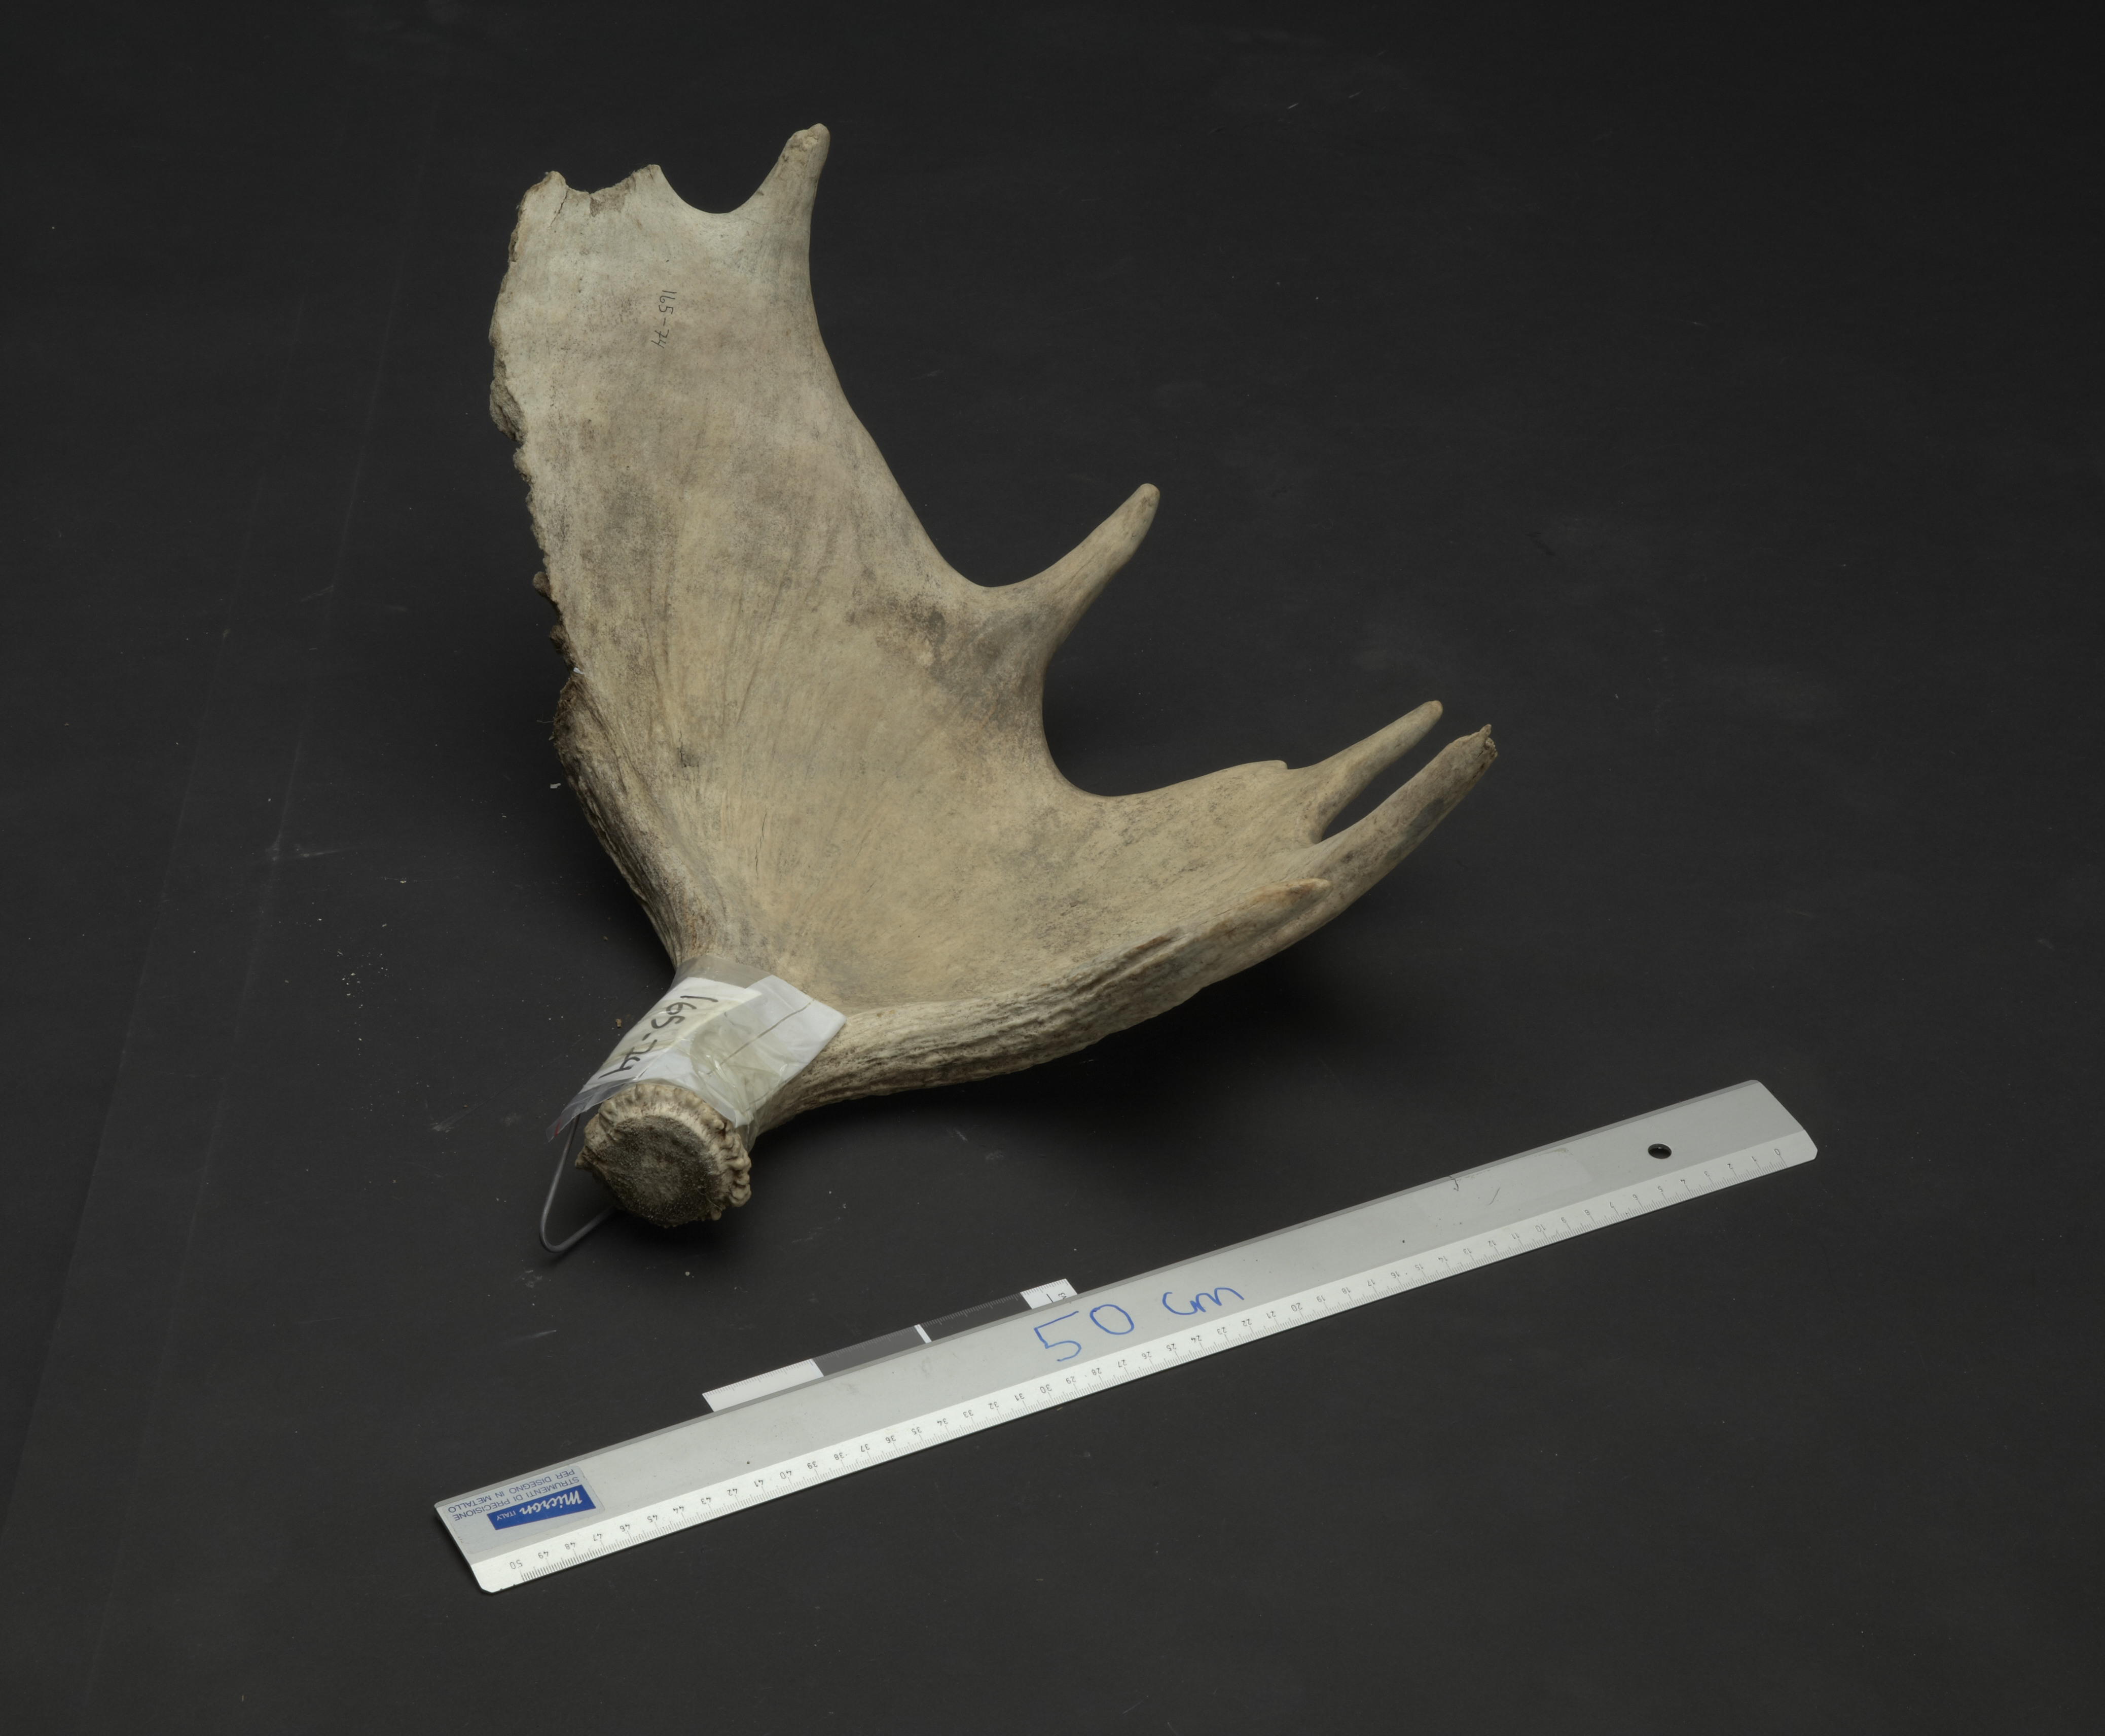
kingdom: Animalia
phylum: Chordata
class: Mammalia
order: Artiodactyla
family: Cervidae
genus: Alces
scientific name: Alces alces
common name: Moose
